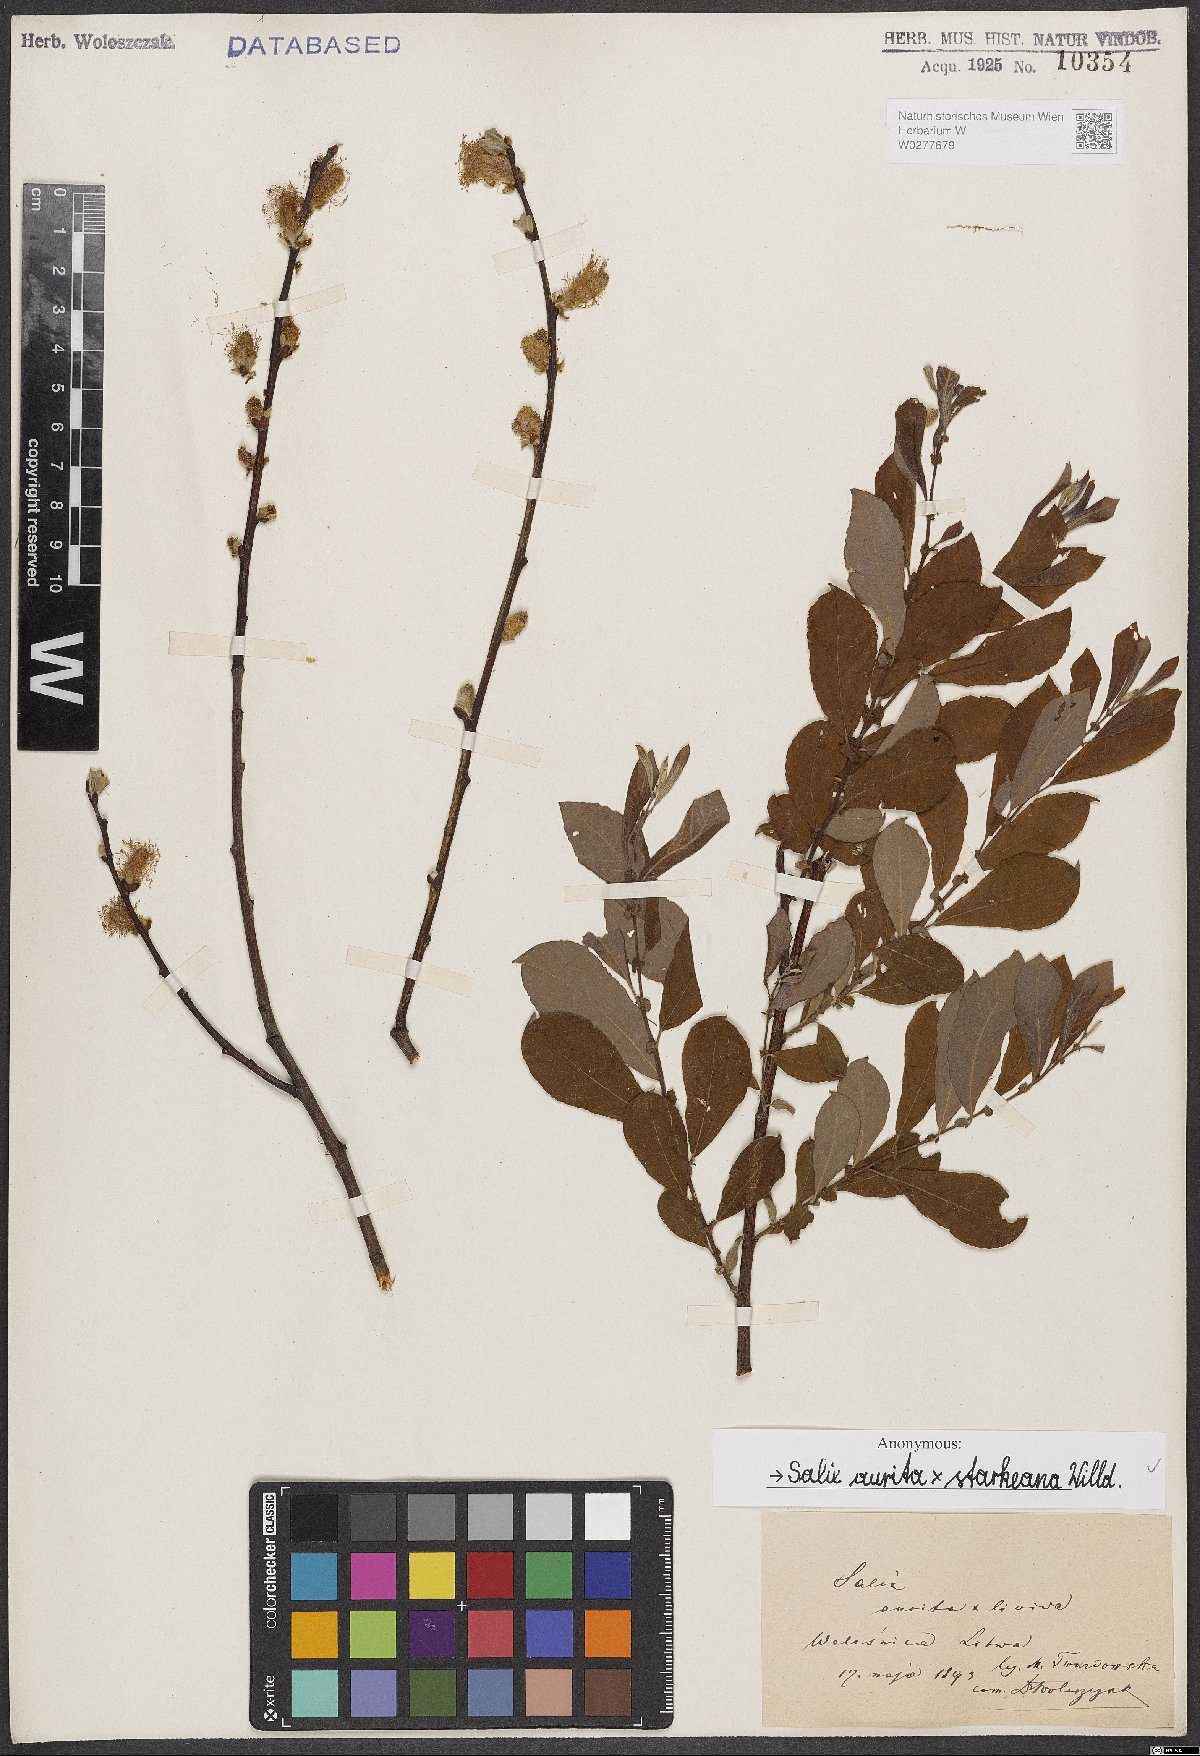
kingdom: Plantae
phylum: Tracheophyta
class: Magnoliopsida
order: Malpighiales
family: Salicaceae
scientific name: Salicaceae
